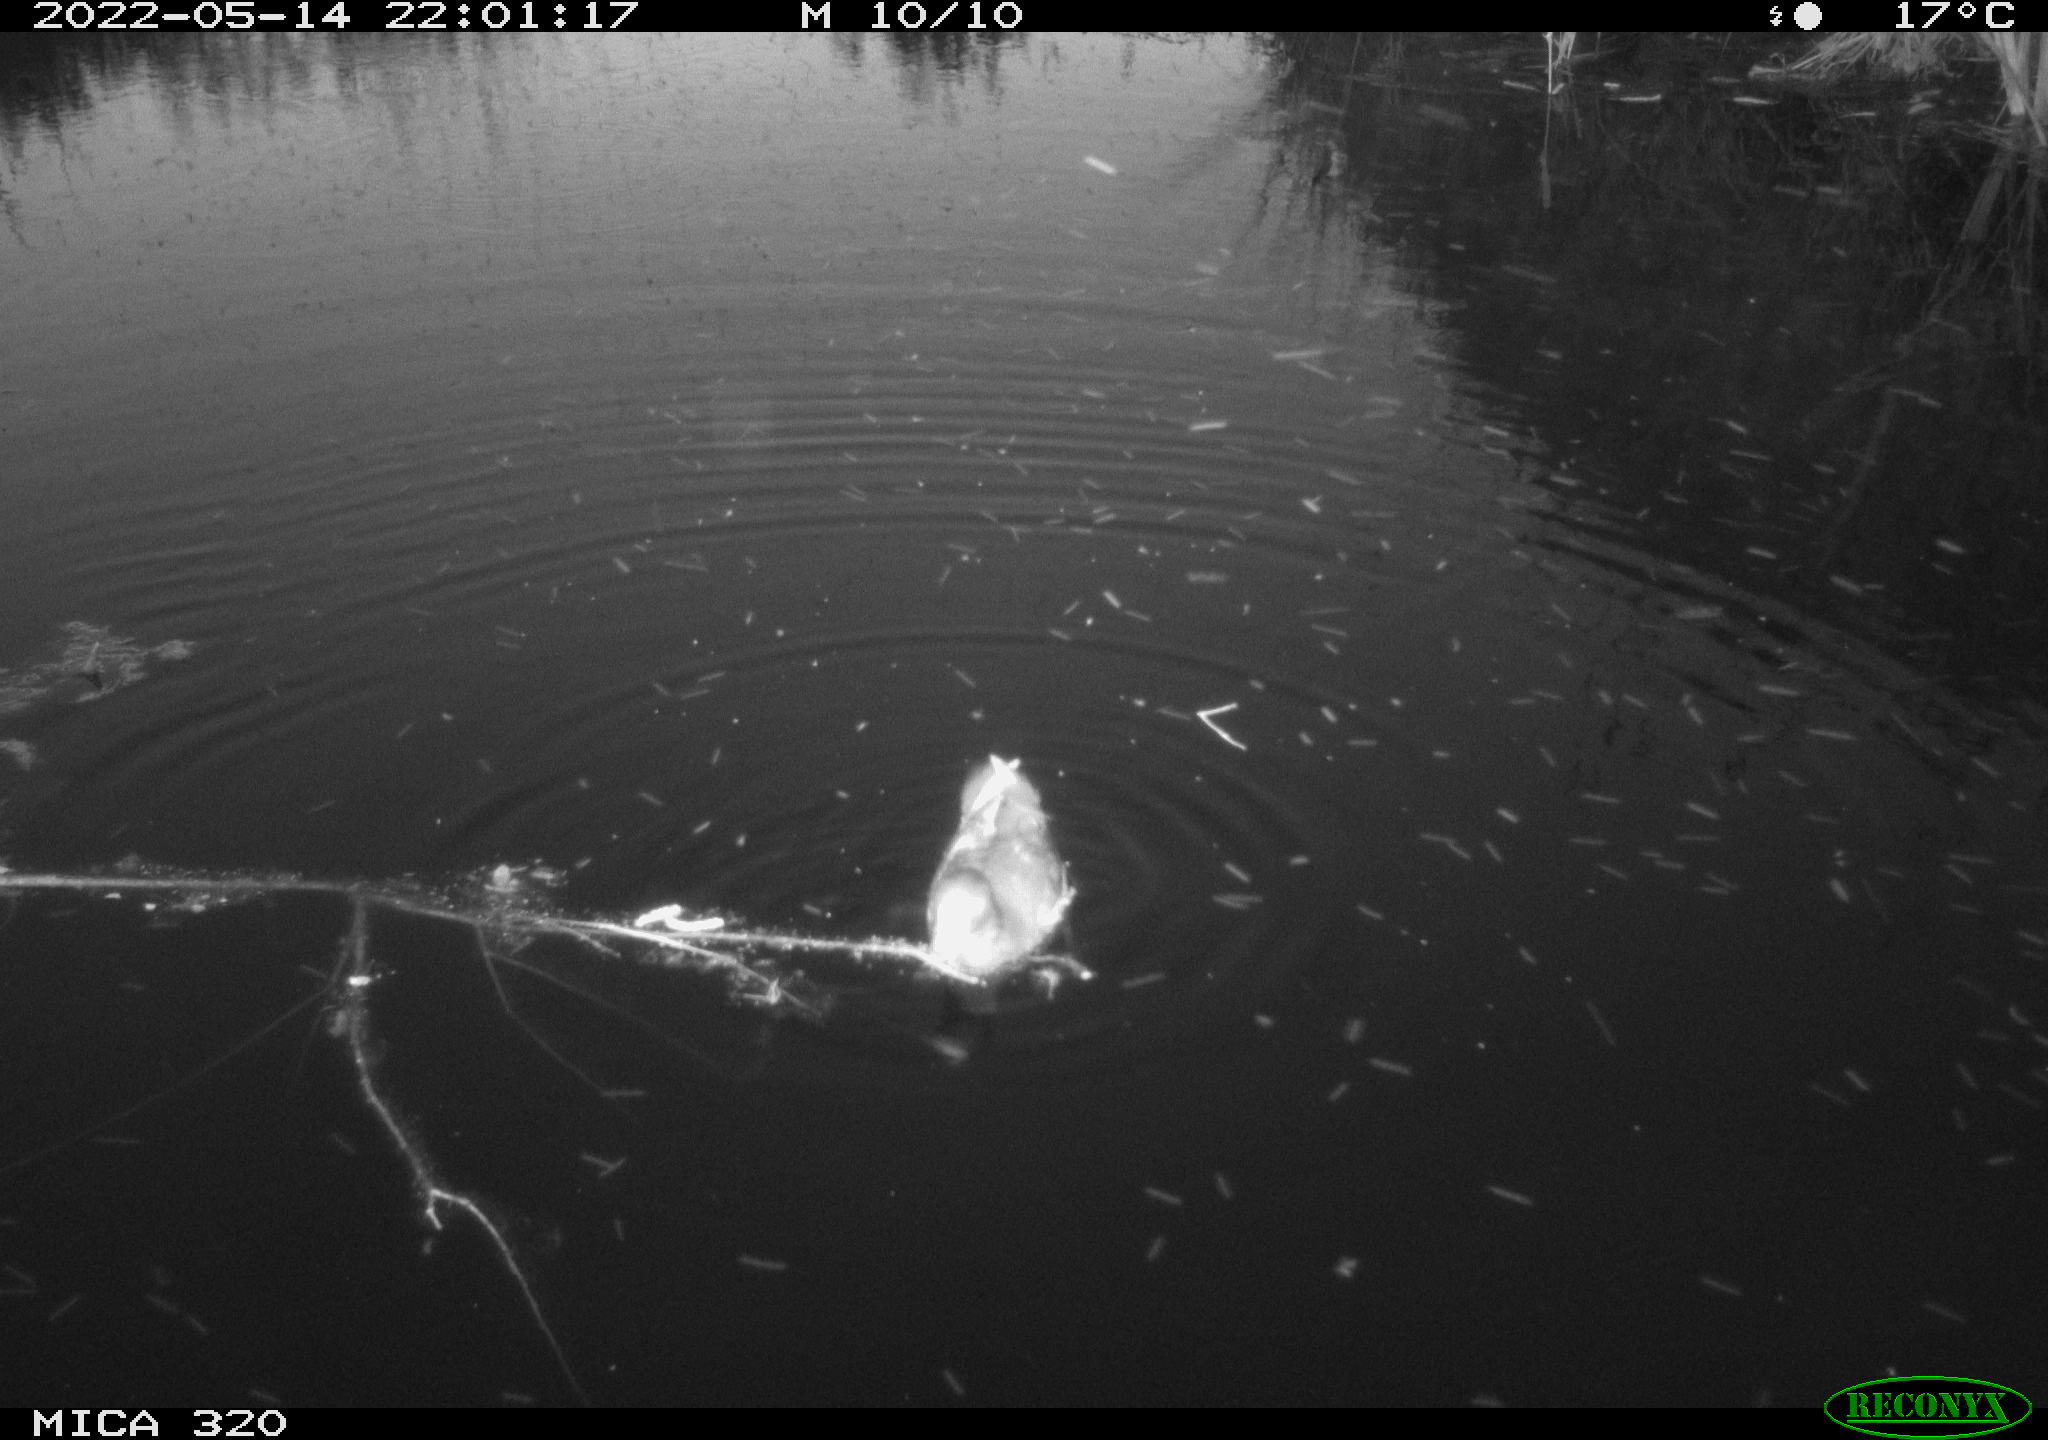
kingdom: Animalia
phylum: Chordata
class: Aves
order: Gruiformes
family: Rallidae
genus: Gallinula
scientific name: Gallinula chloropus
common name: Common moorhen
